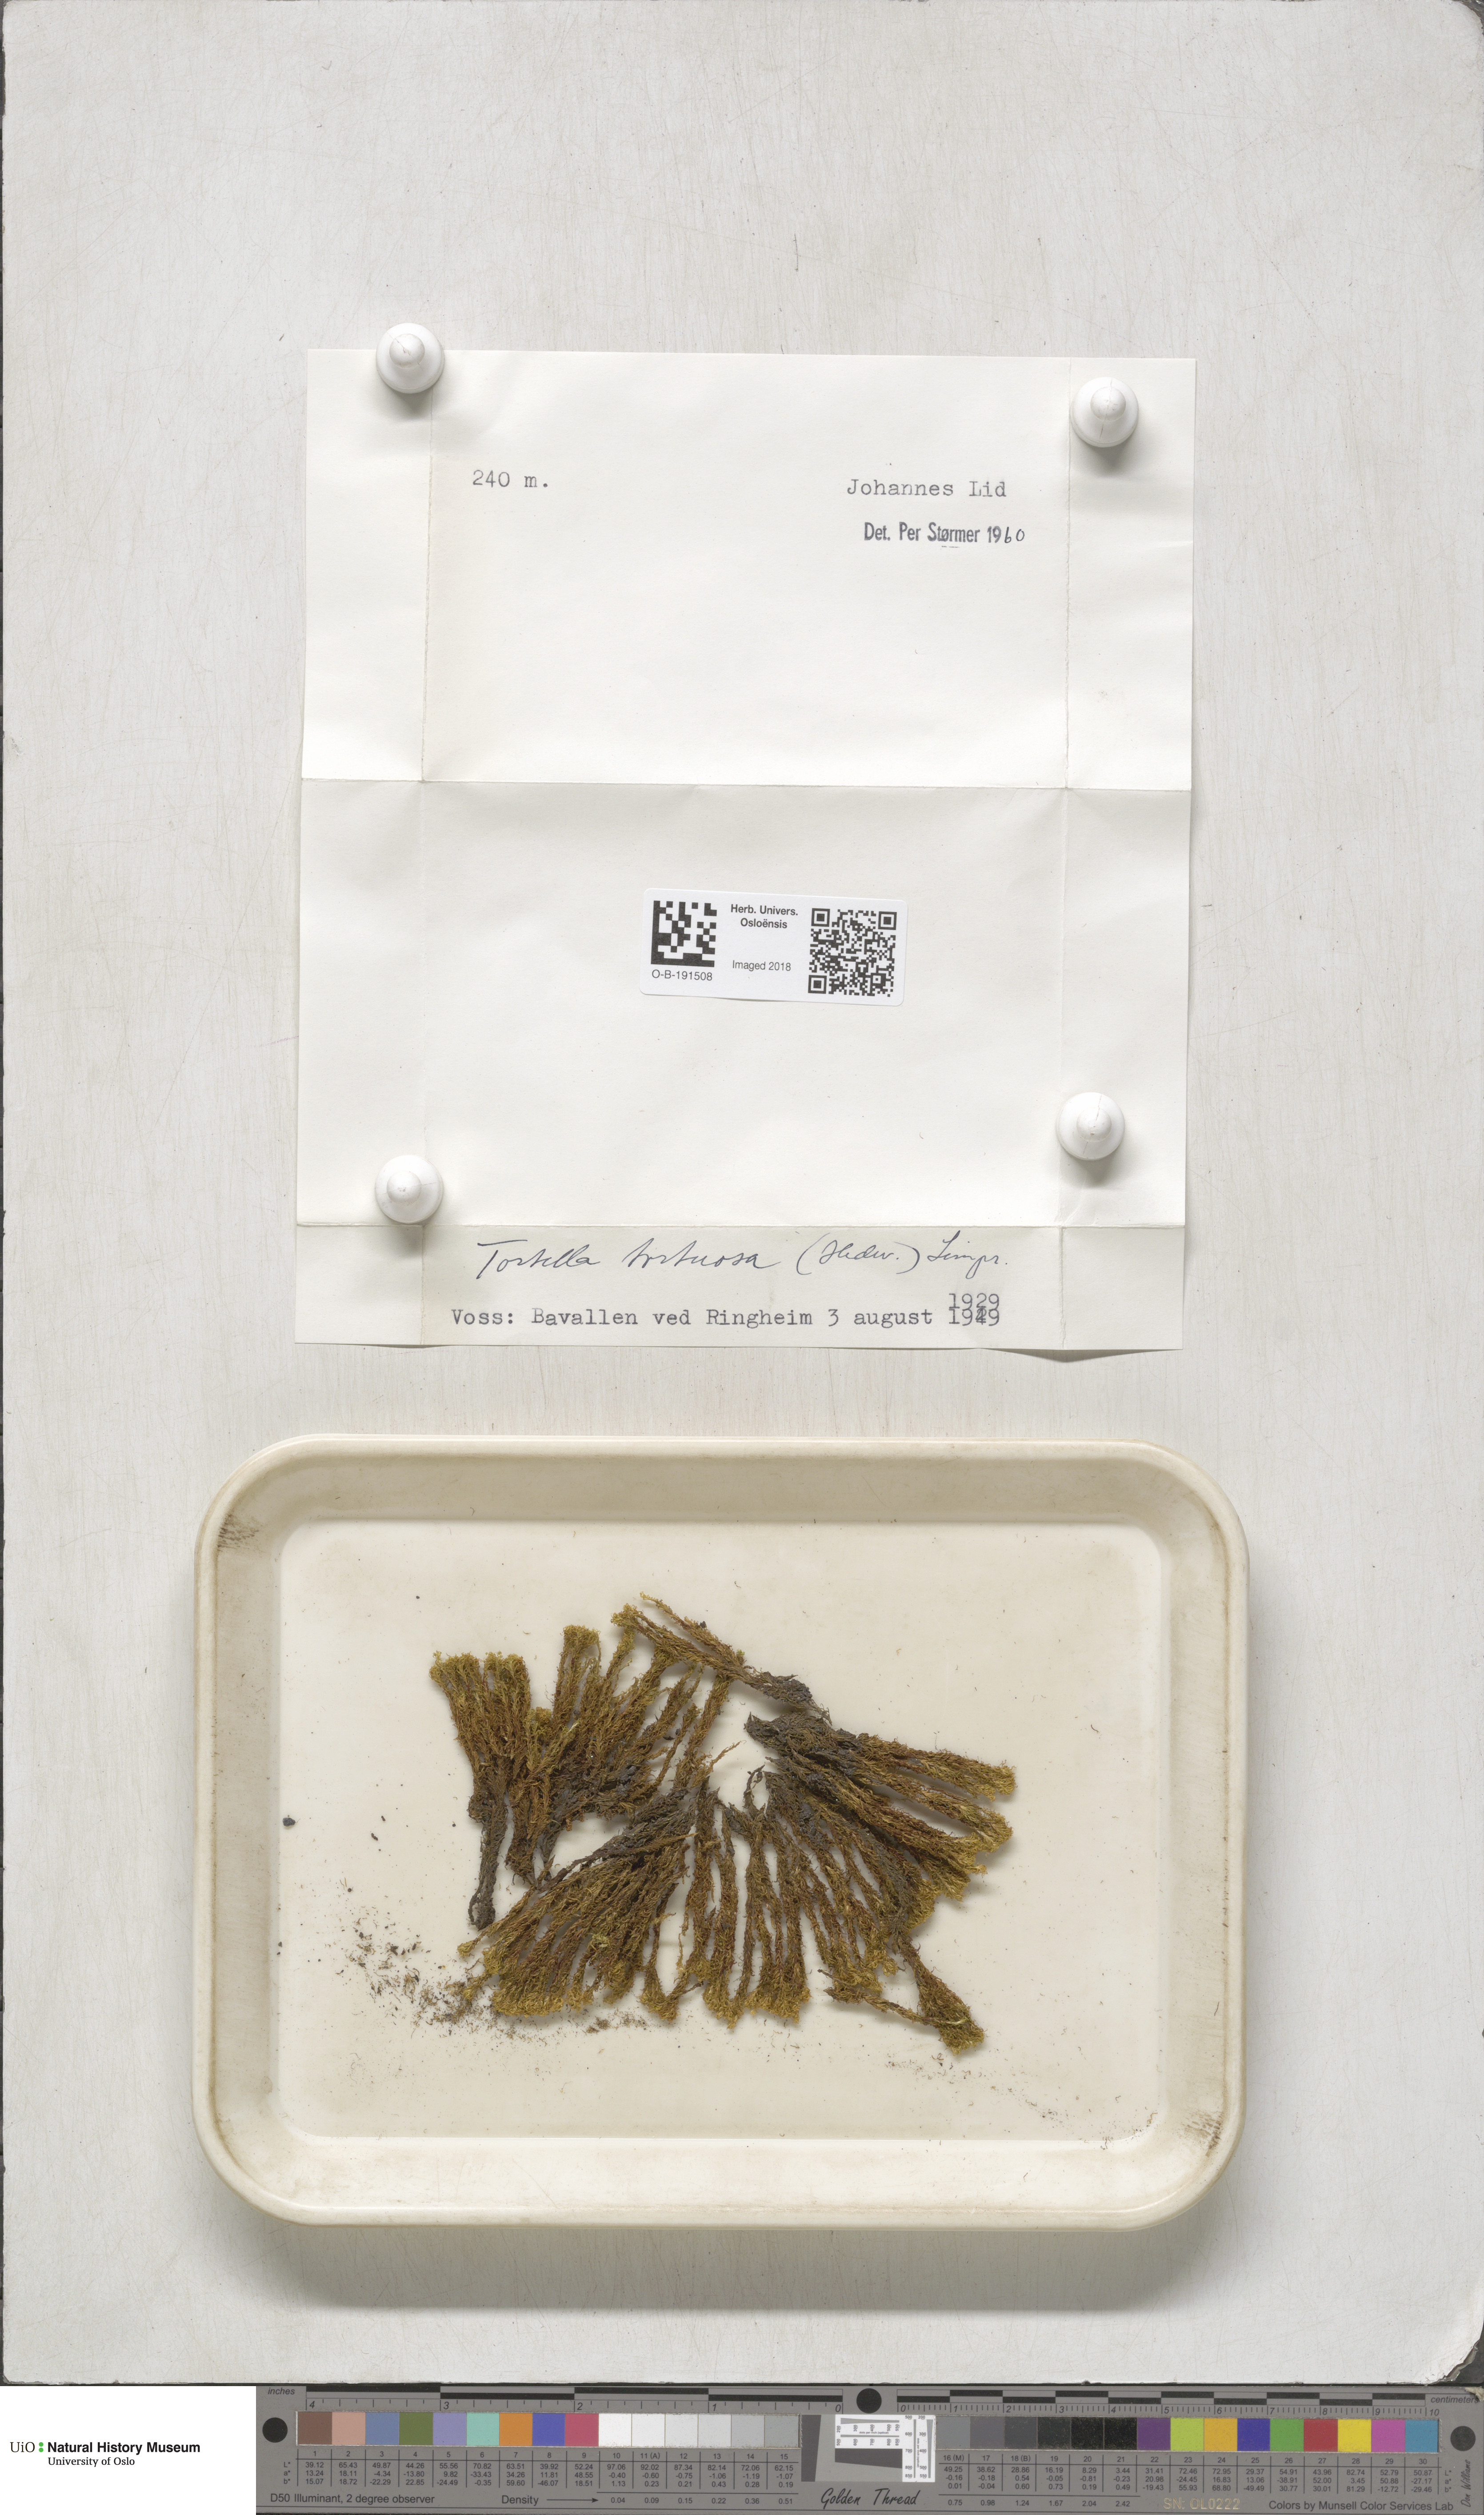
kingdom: Plantae
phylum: Bryophyta
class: Bryopsida
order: Pottiales
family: Pottiaceae
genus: Tortella
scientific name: Tortella tortuosa
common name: Frizzled crisp moss
